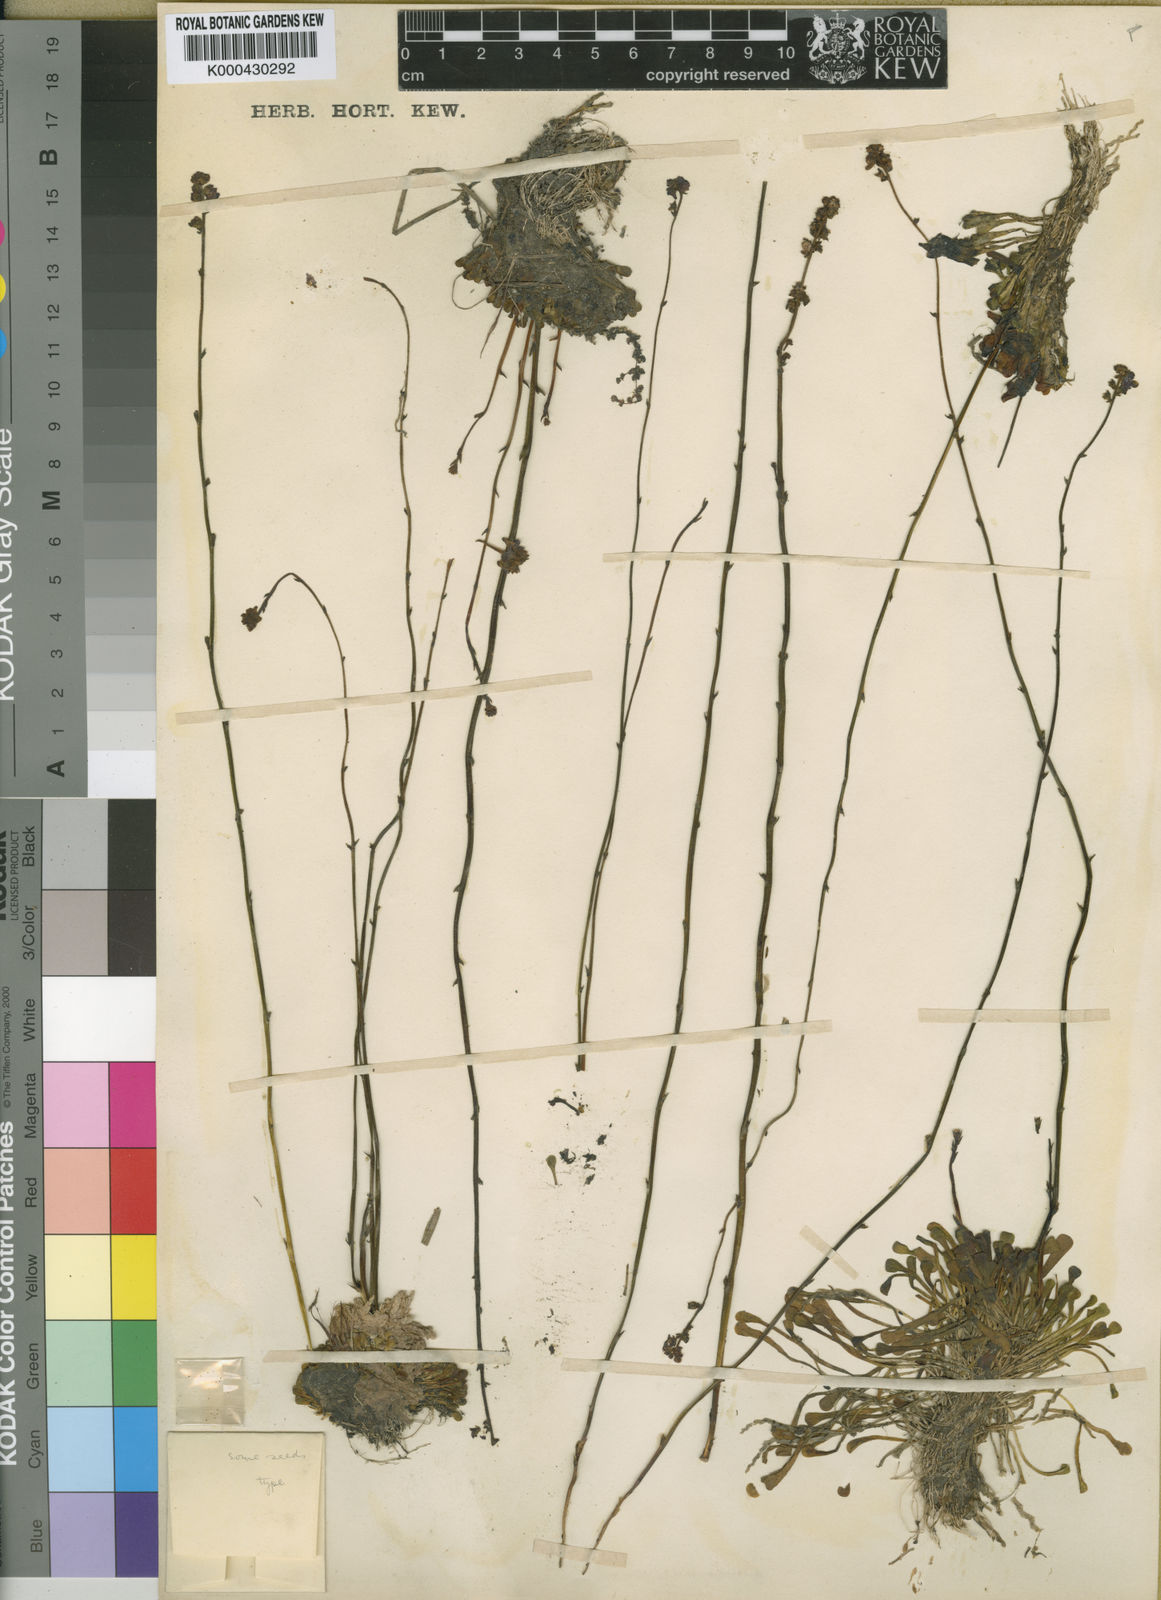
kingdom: Plantae
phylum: Tracheophyta
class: Magnoliopsida
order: Lamiales
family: Lentibulariaceae
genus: Genlisea
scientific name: Genlisea margaretae
